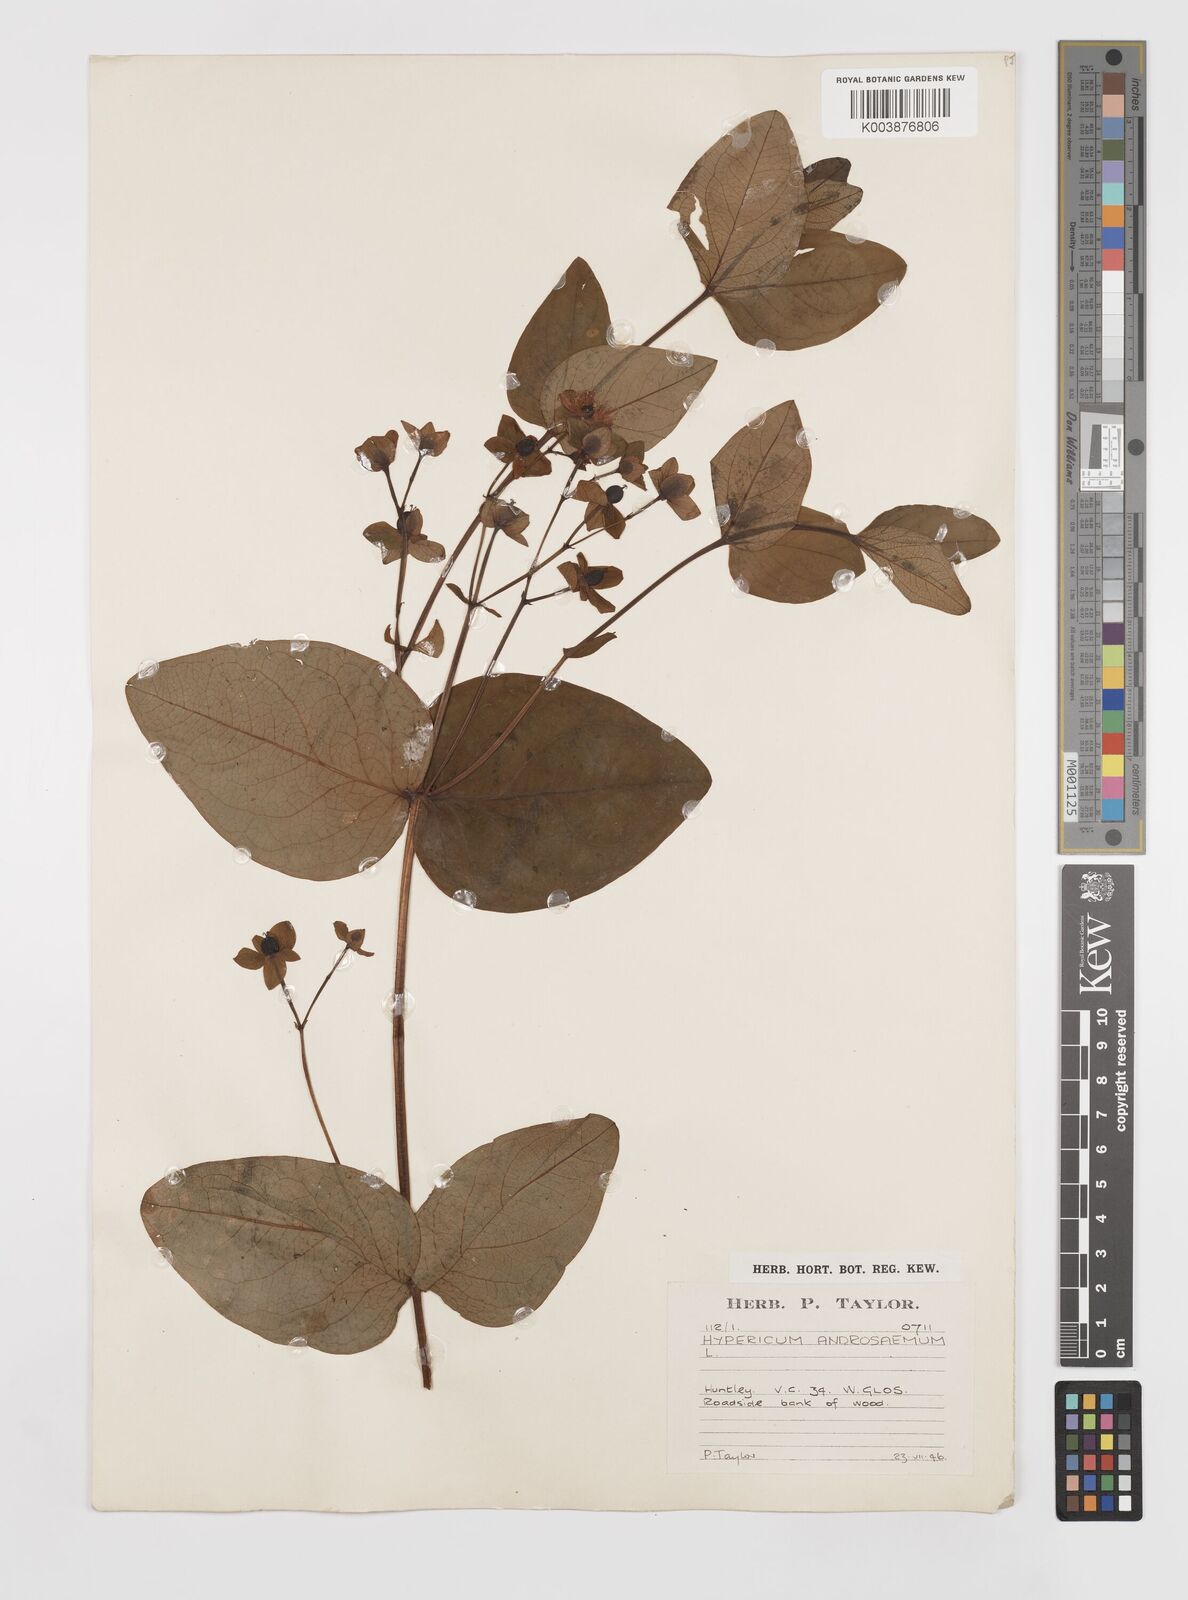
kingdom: Plantae
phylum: Tracheophyta
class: Magnoliopsida
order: Malpighiales
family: Hypericaceae
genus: Hypericum
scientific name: Hypericum androsaemum
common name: Sweet-amber
